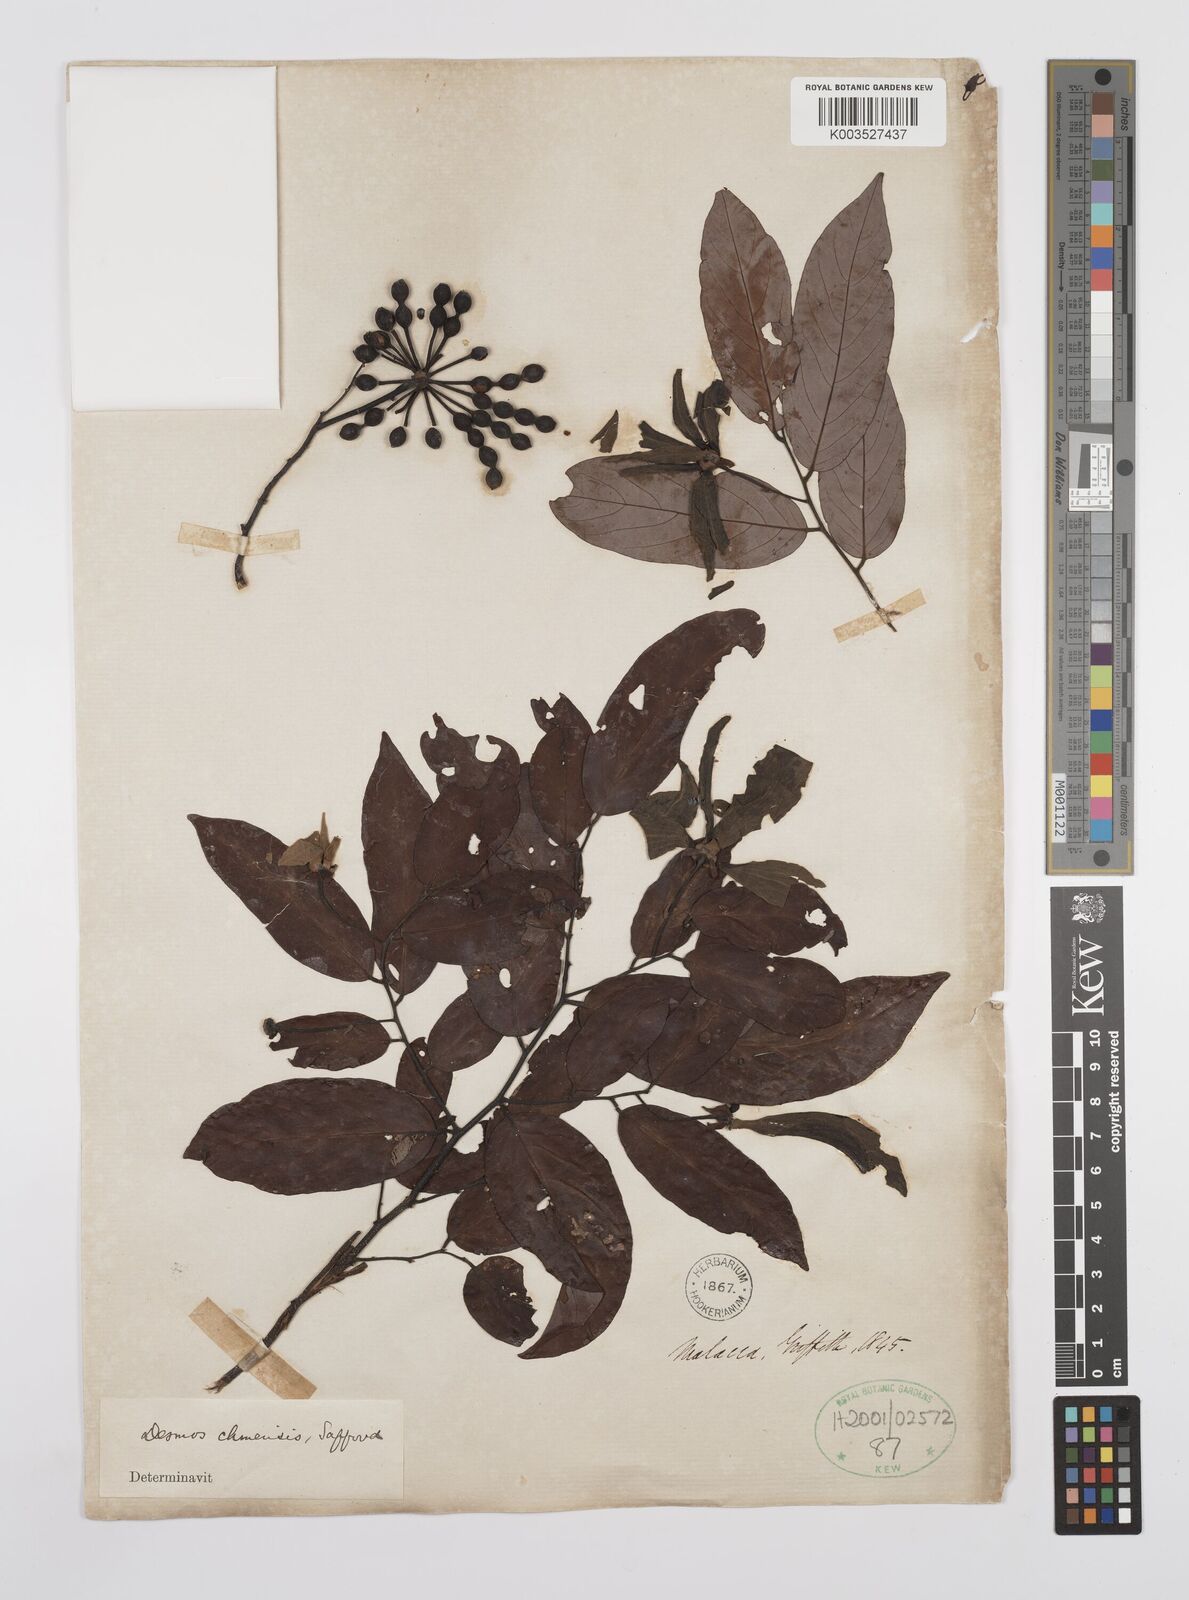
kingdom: Plantae
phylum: Tracheophyta
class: Magnoliopsida
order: Magnoliales
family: Annonaceae
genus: Desmos
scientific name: Desmos chinensis
